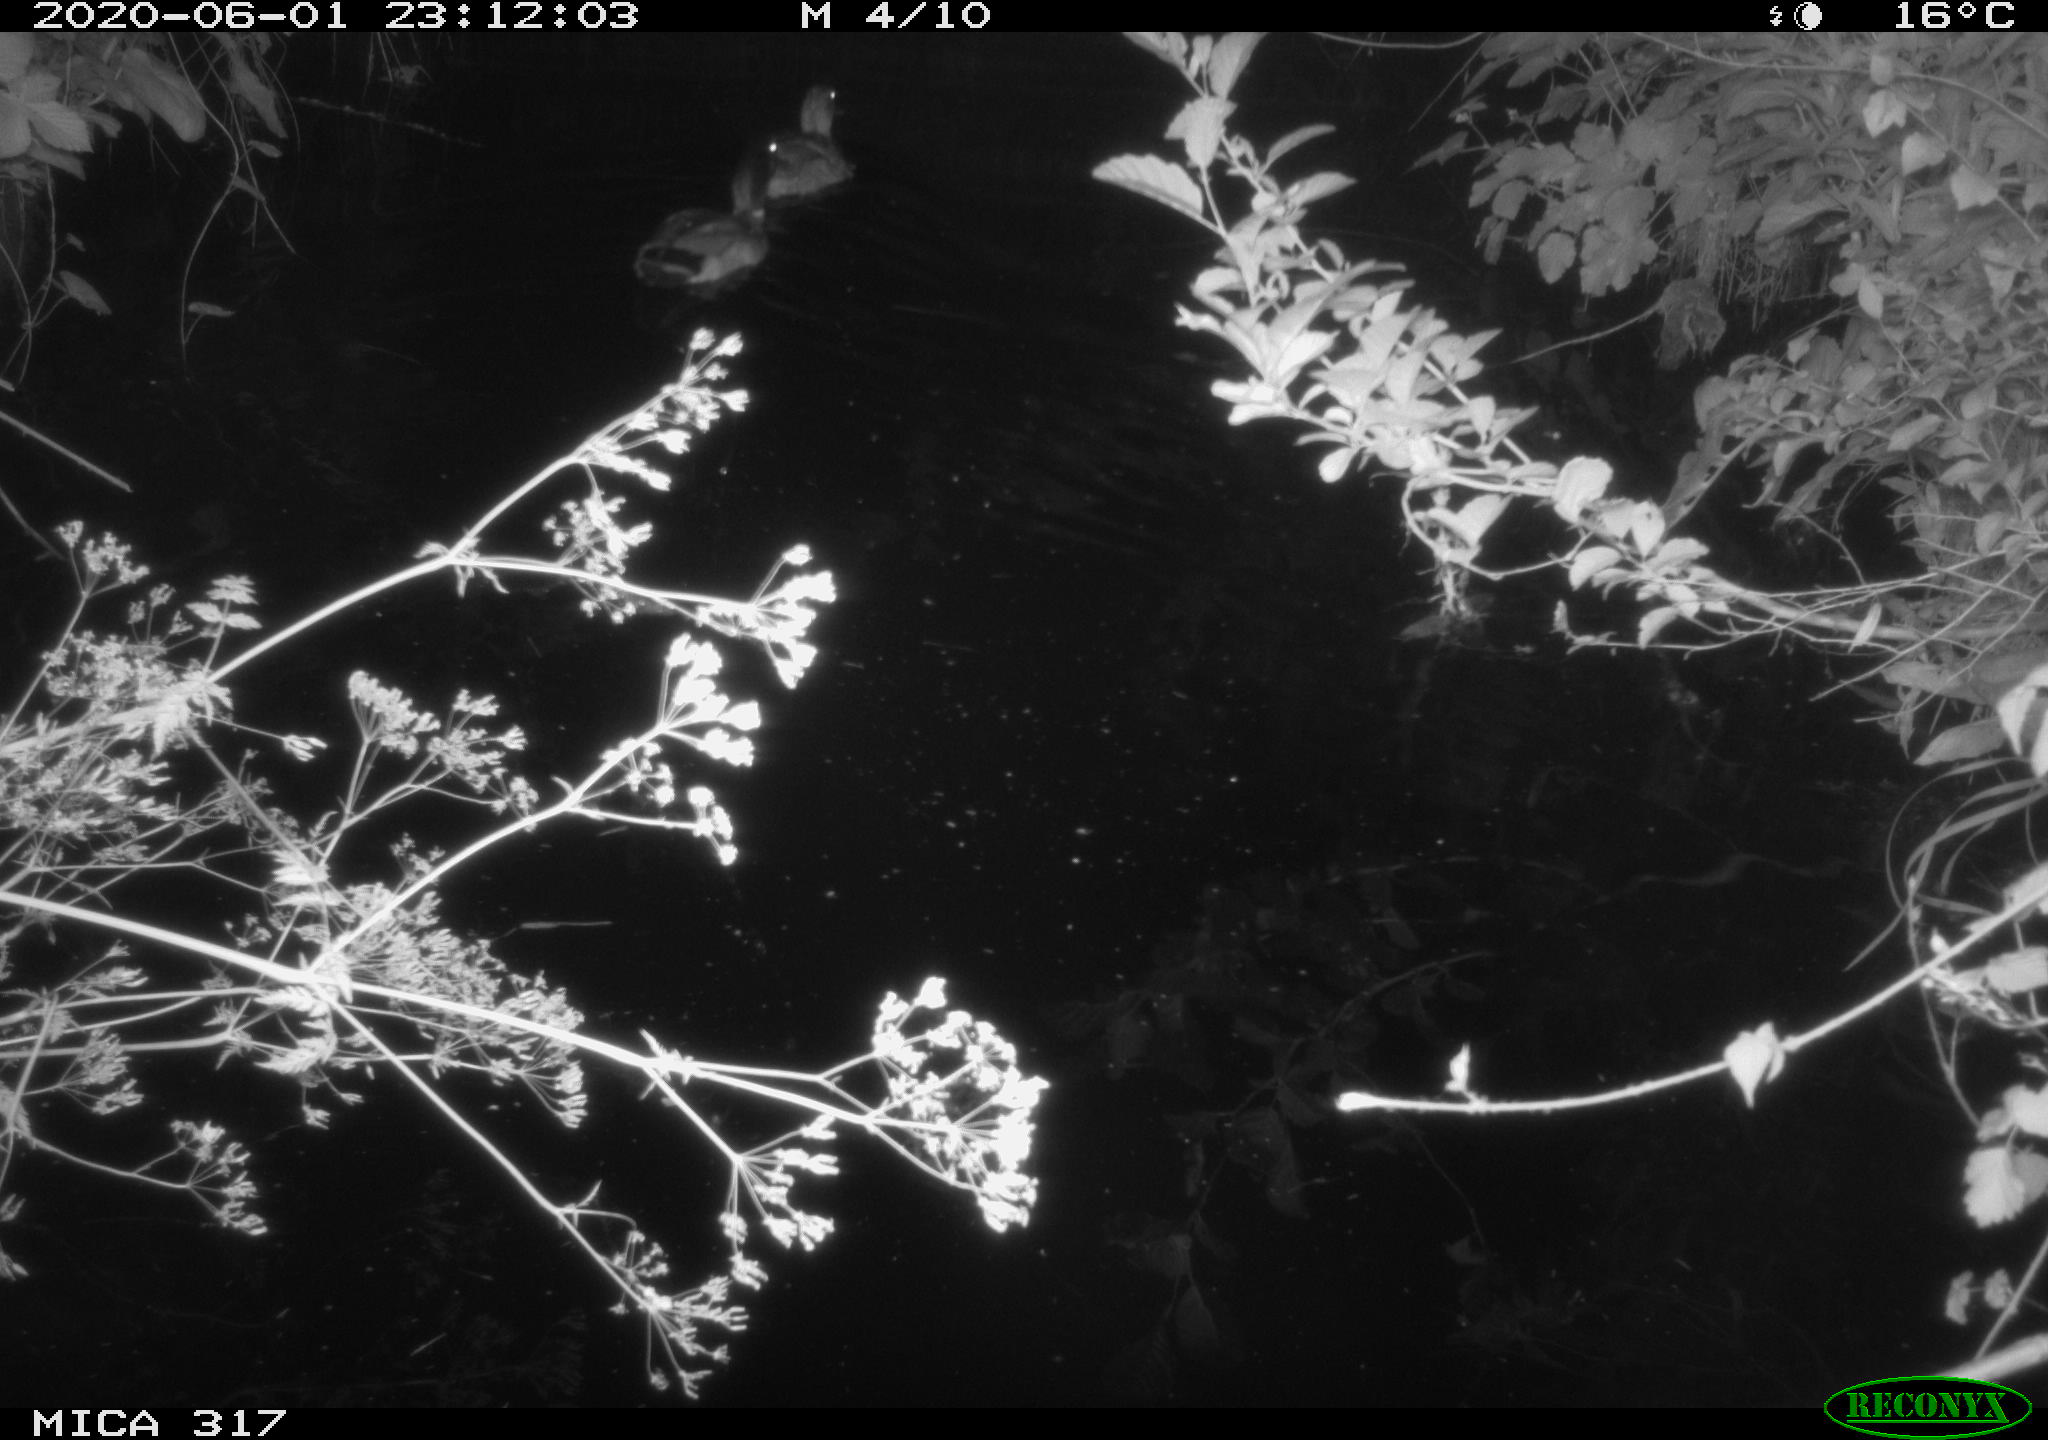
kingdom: Animalia
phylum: Chordata
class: Aves
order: Anseriformes
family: Anatidae
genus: Anas
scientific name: Anas platyrhynchos
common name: Mallard
